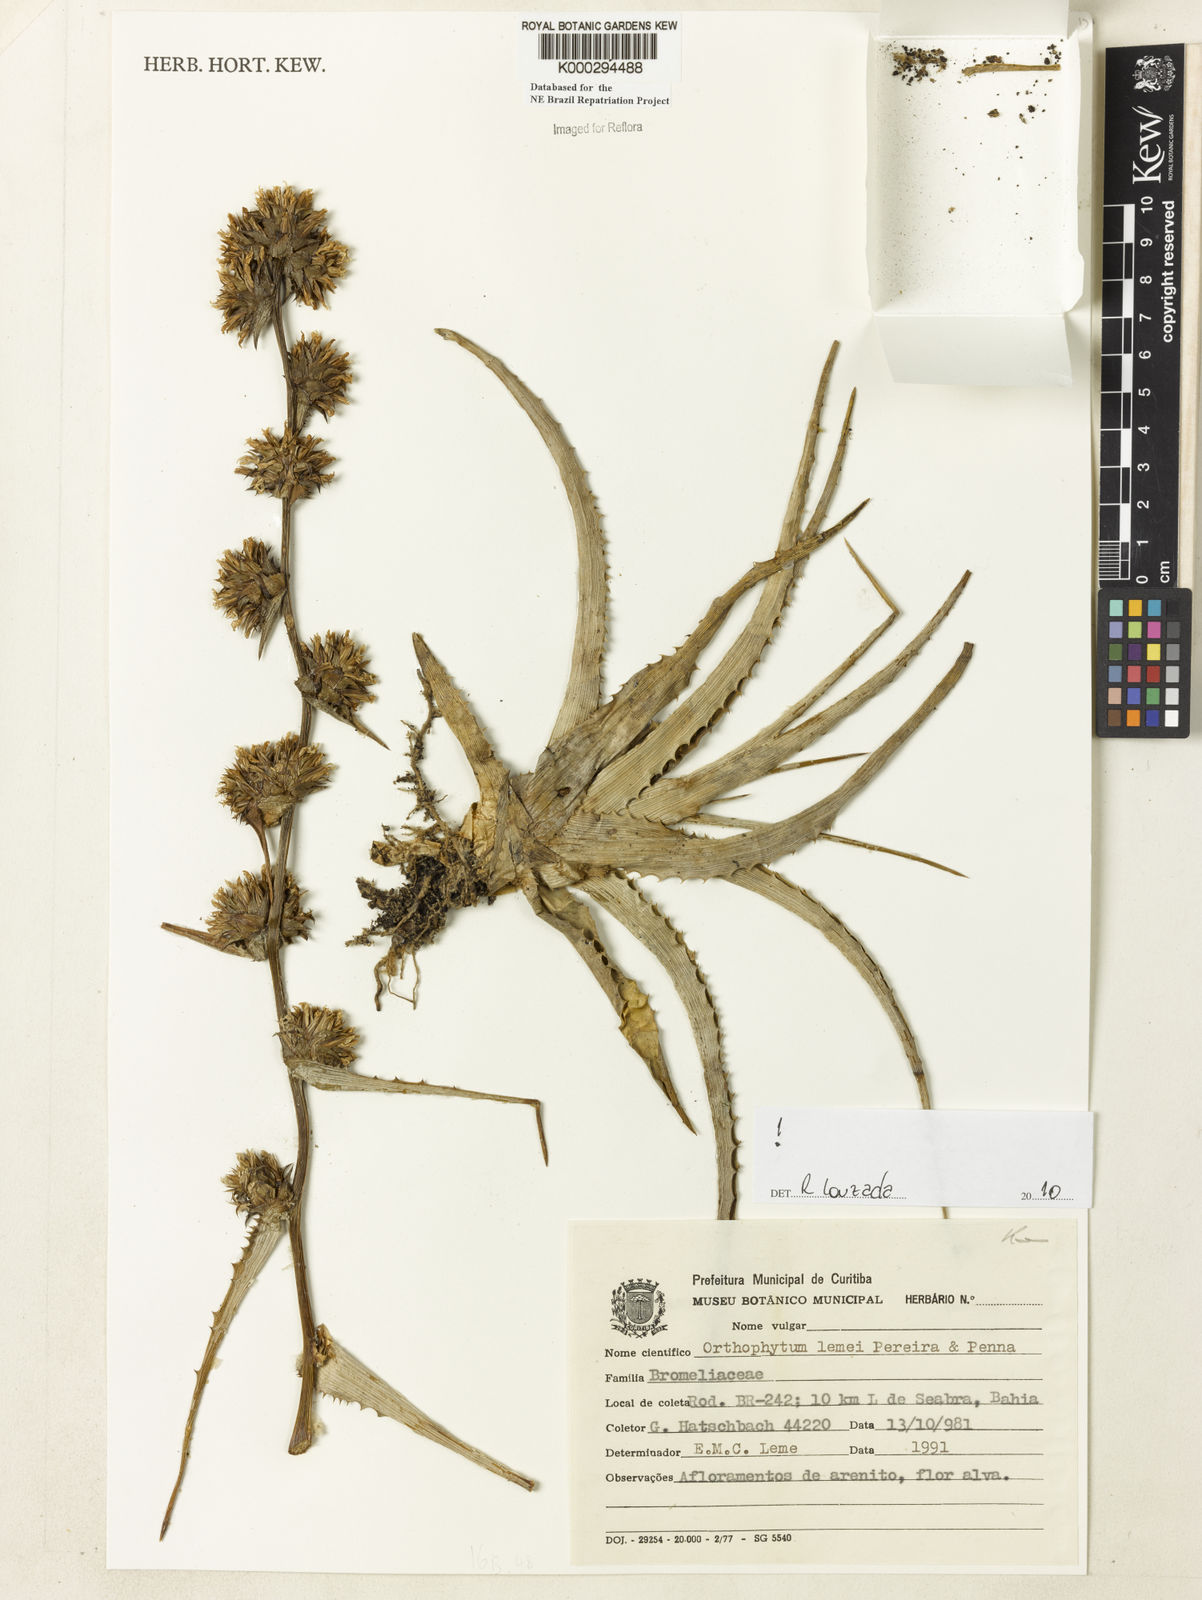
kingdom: Plantae
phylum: Tracheophyta
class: Liliopsida
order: Poales
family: Bromeliaceae
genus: Orthophytum
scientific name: Orthophytum lemei
